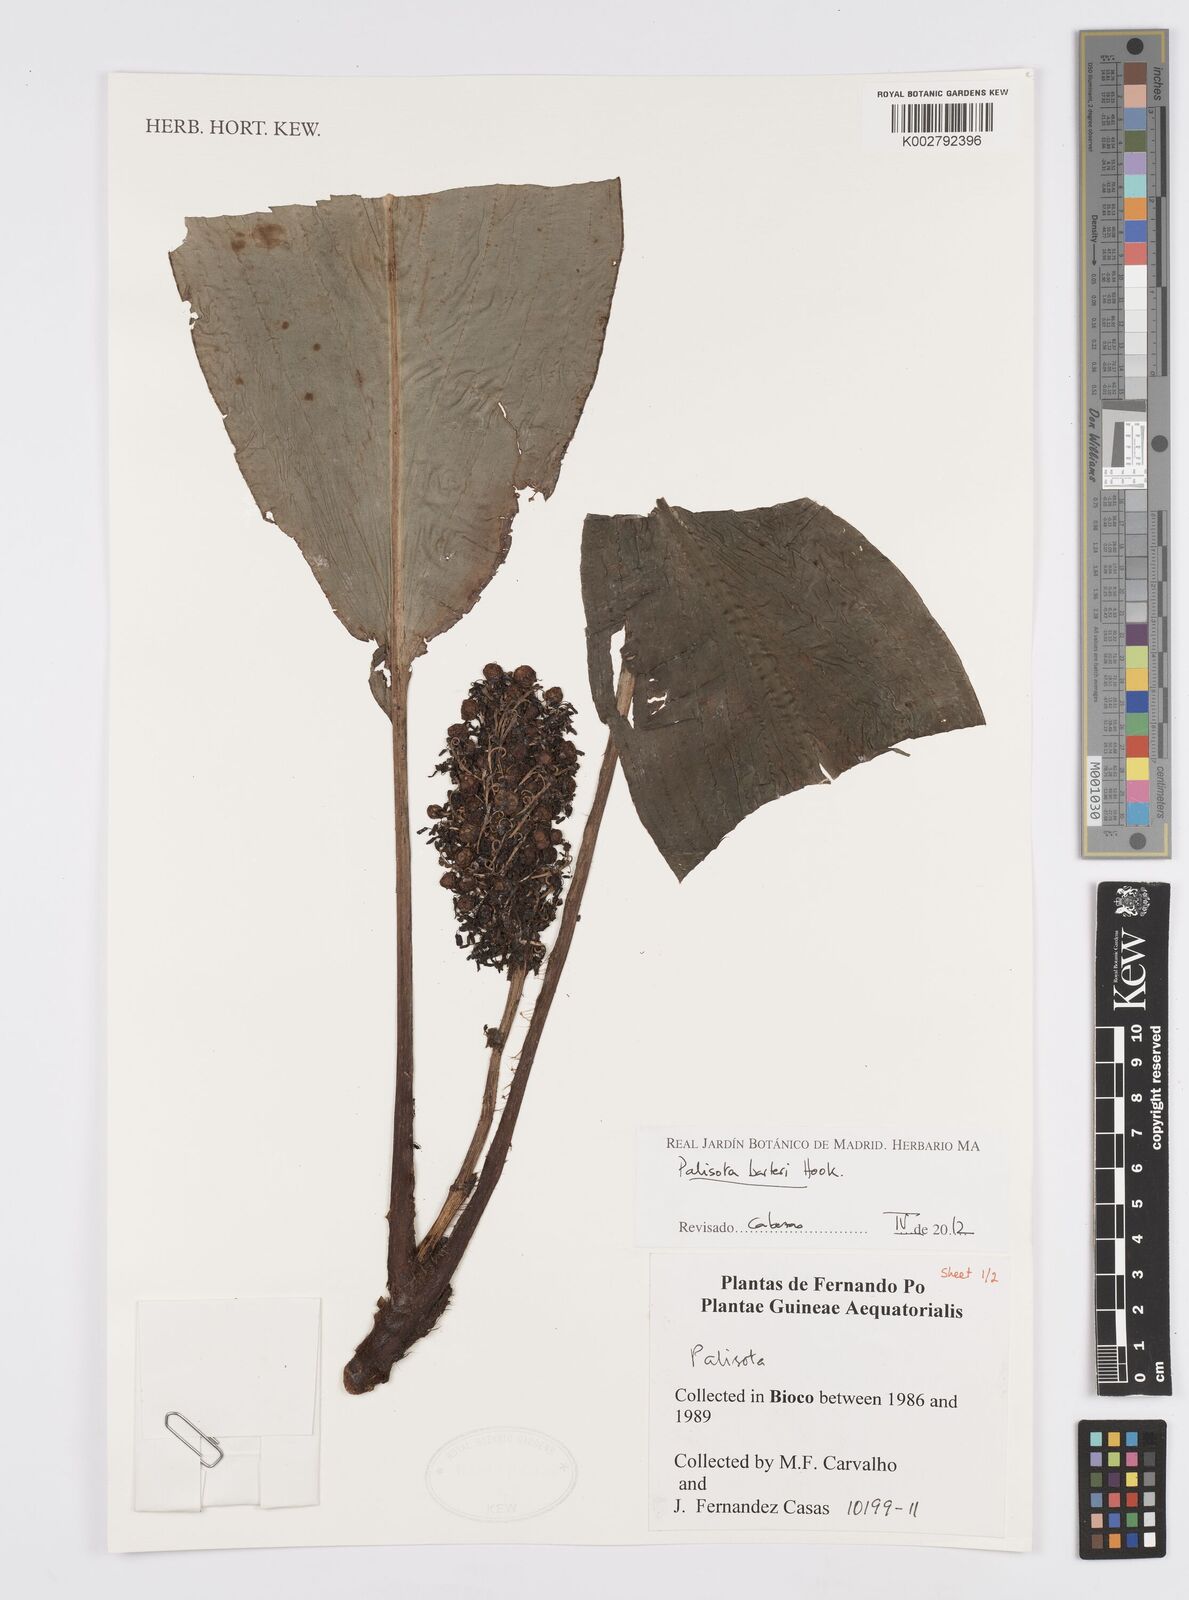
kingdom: Plantae
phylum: Tracheophyta
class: Liliopsida
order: Commelinales
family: Commelinaceae
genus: Palisota
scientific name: Palisota barteri
